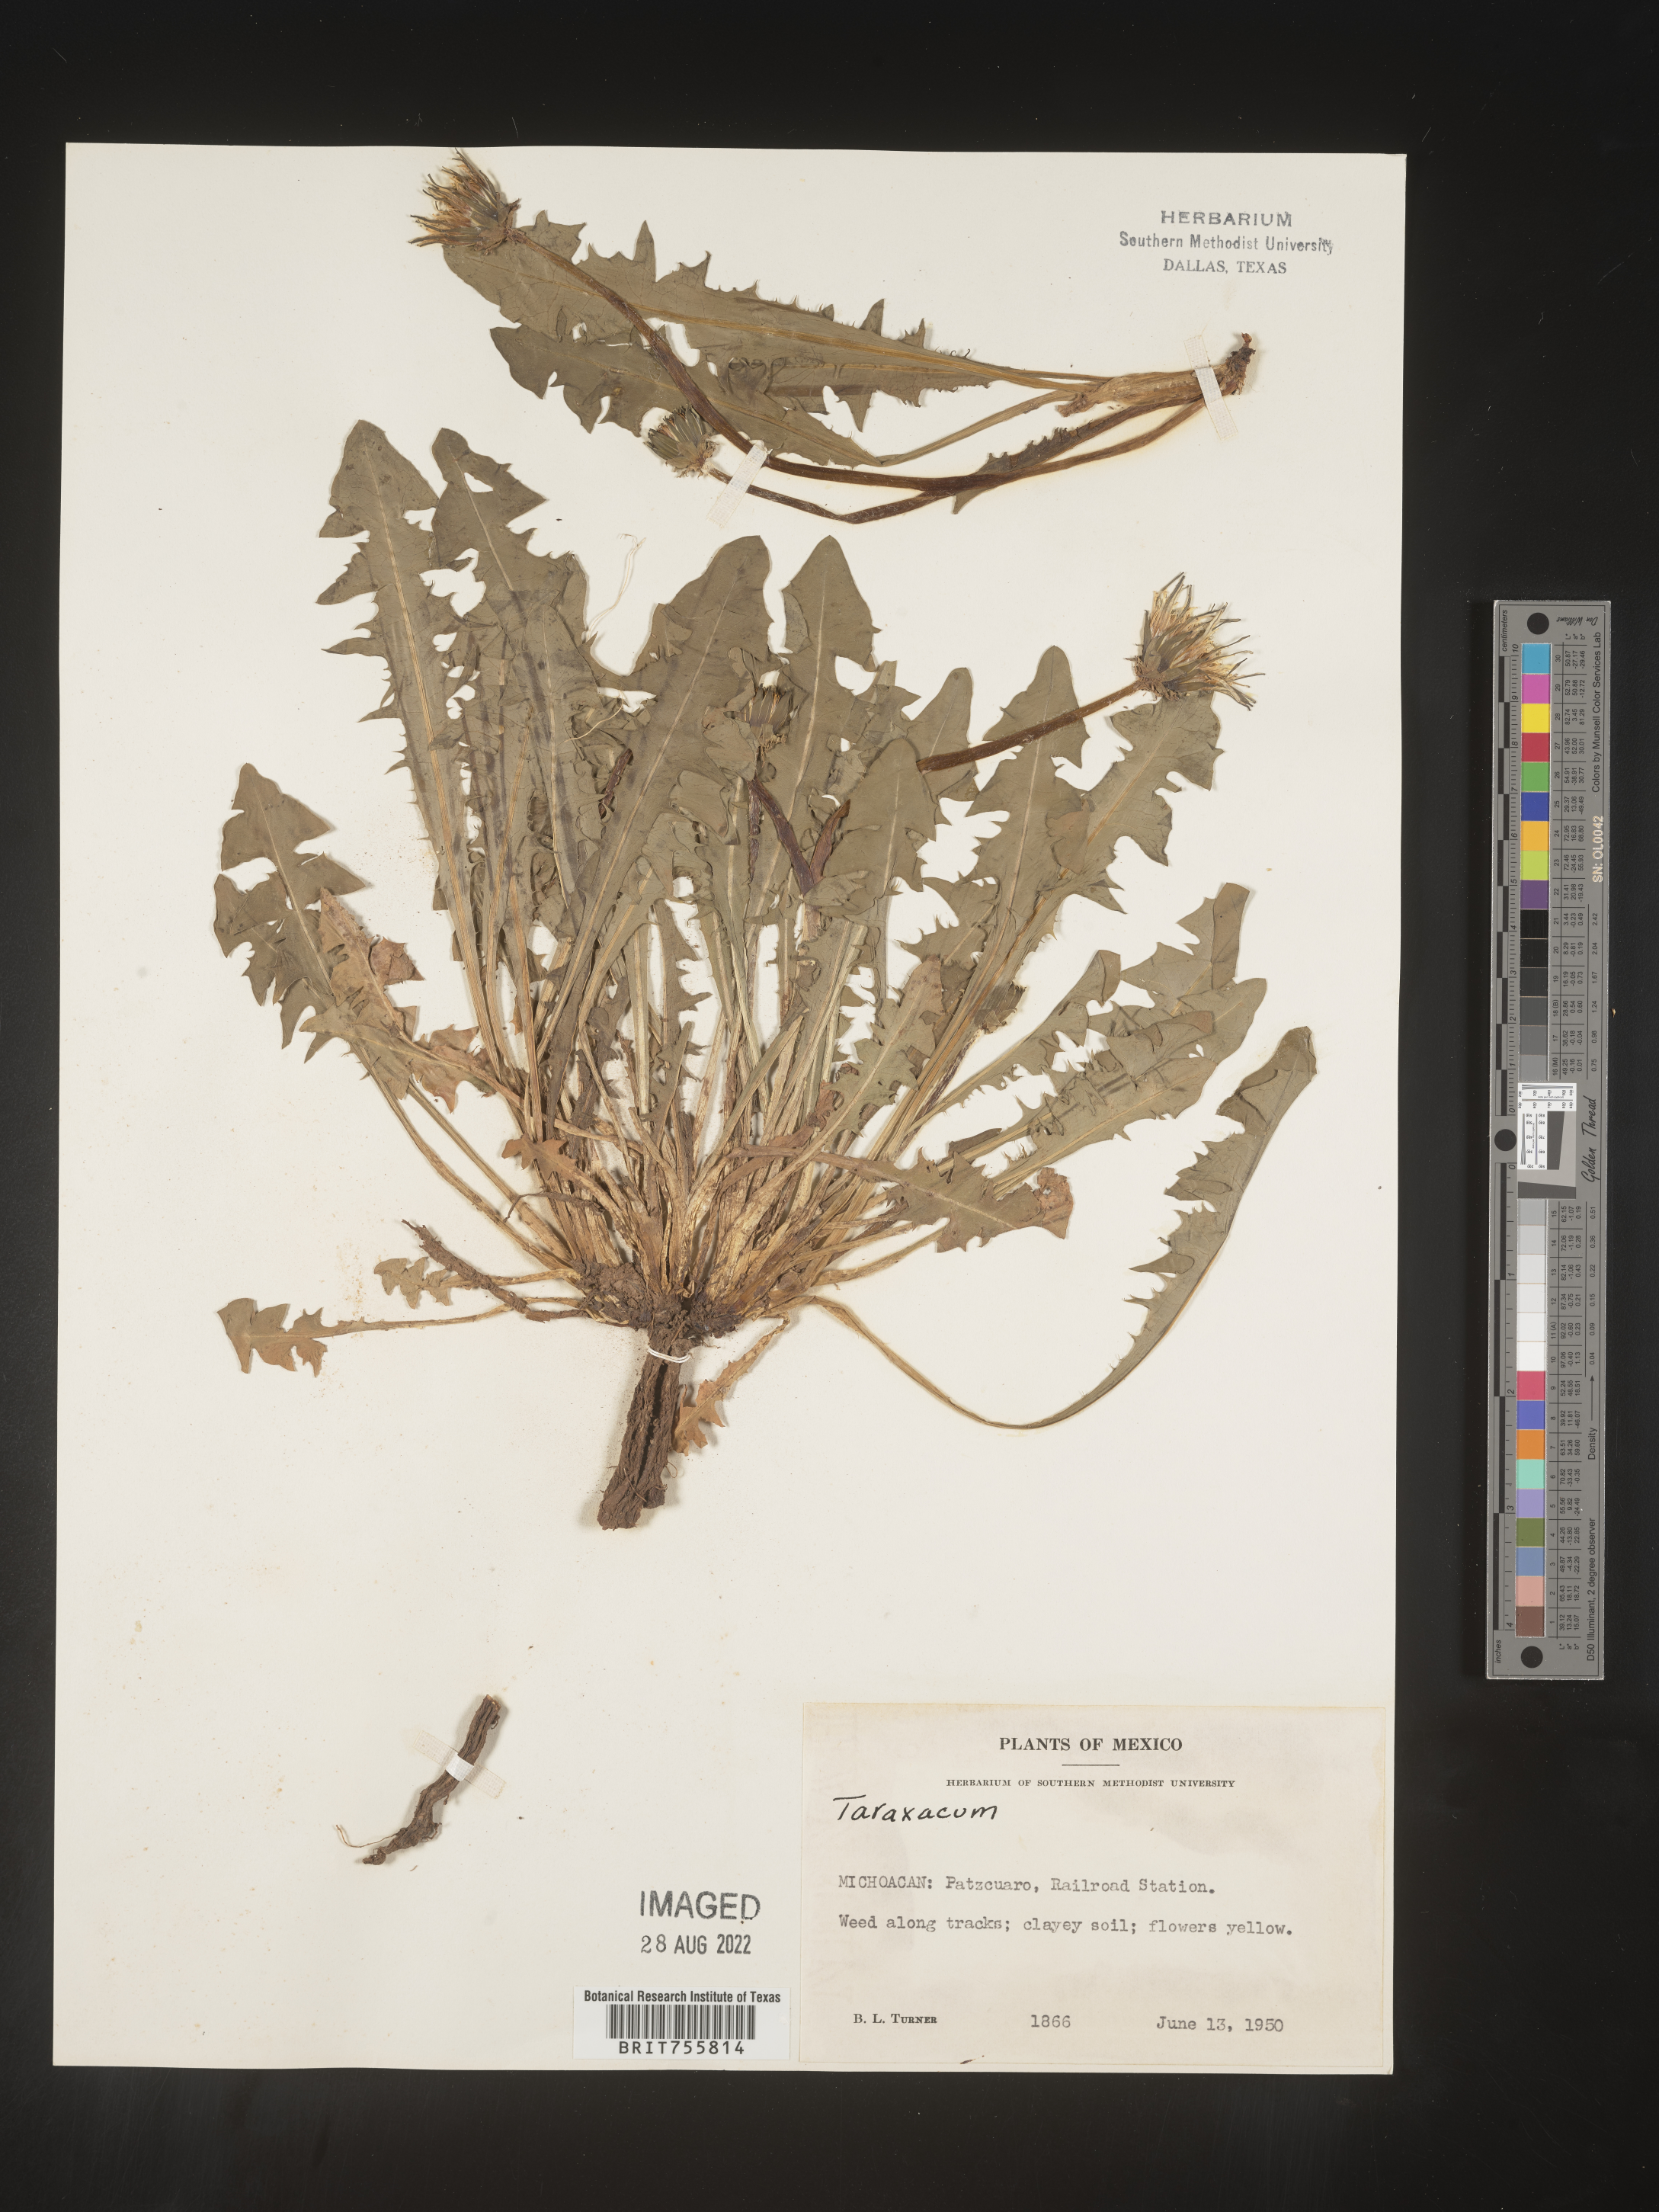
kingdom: Plantae
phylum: Tracheophyta
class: Magnoliopsida
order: Asterales
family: Asteraceae
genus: Taraxacum
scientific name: Taraxacum
